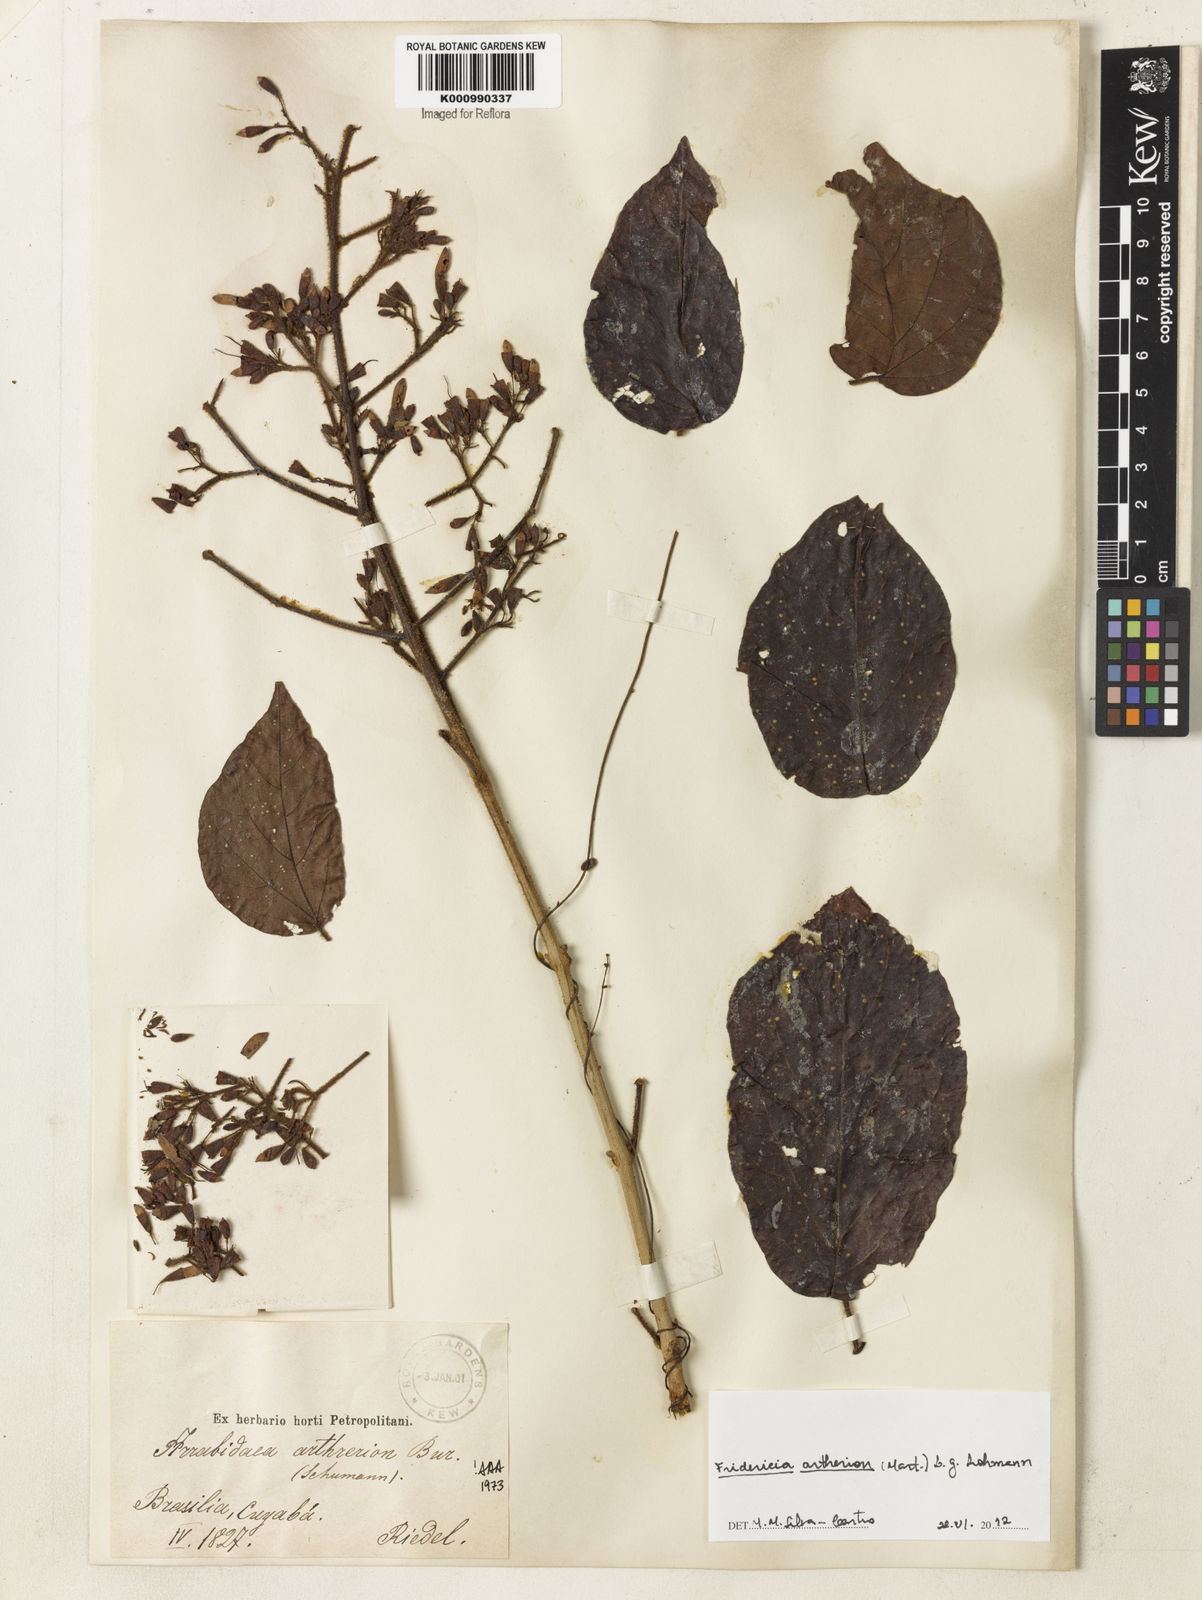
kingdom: Plantae
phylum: Tracheophyta
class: Magnoliopsida
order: Lamiales
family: Bignoniaceae
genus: Fridericia
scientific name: Fridericia
